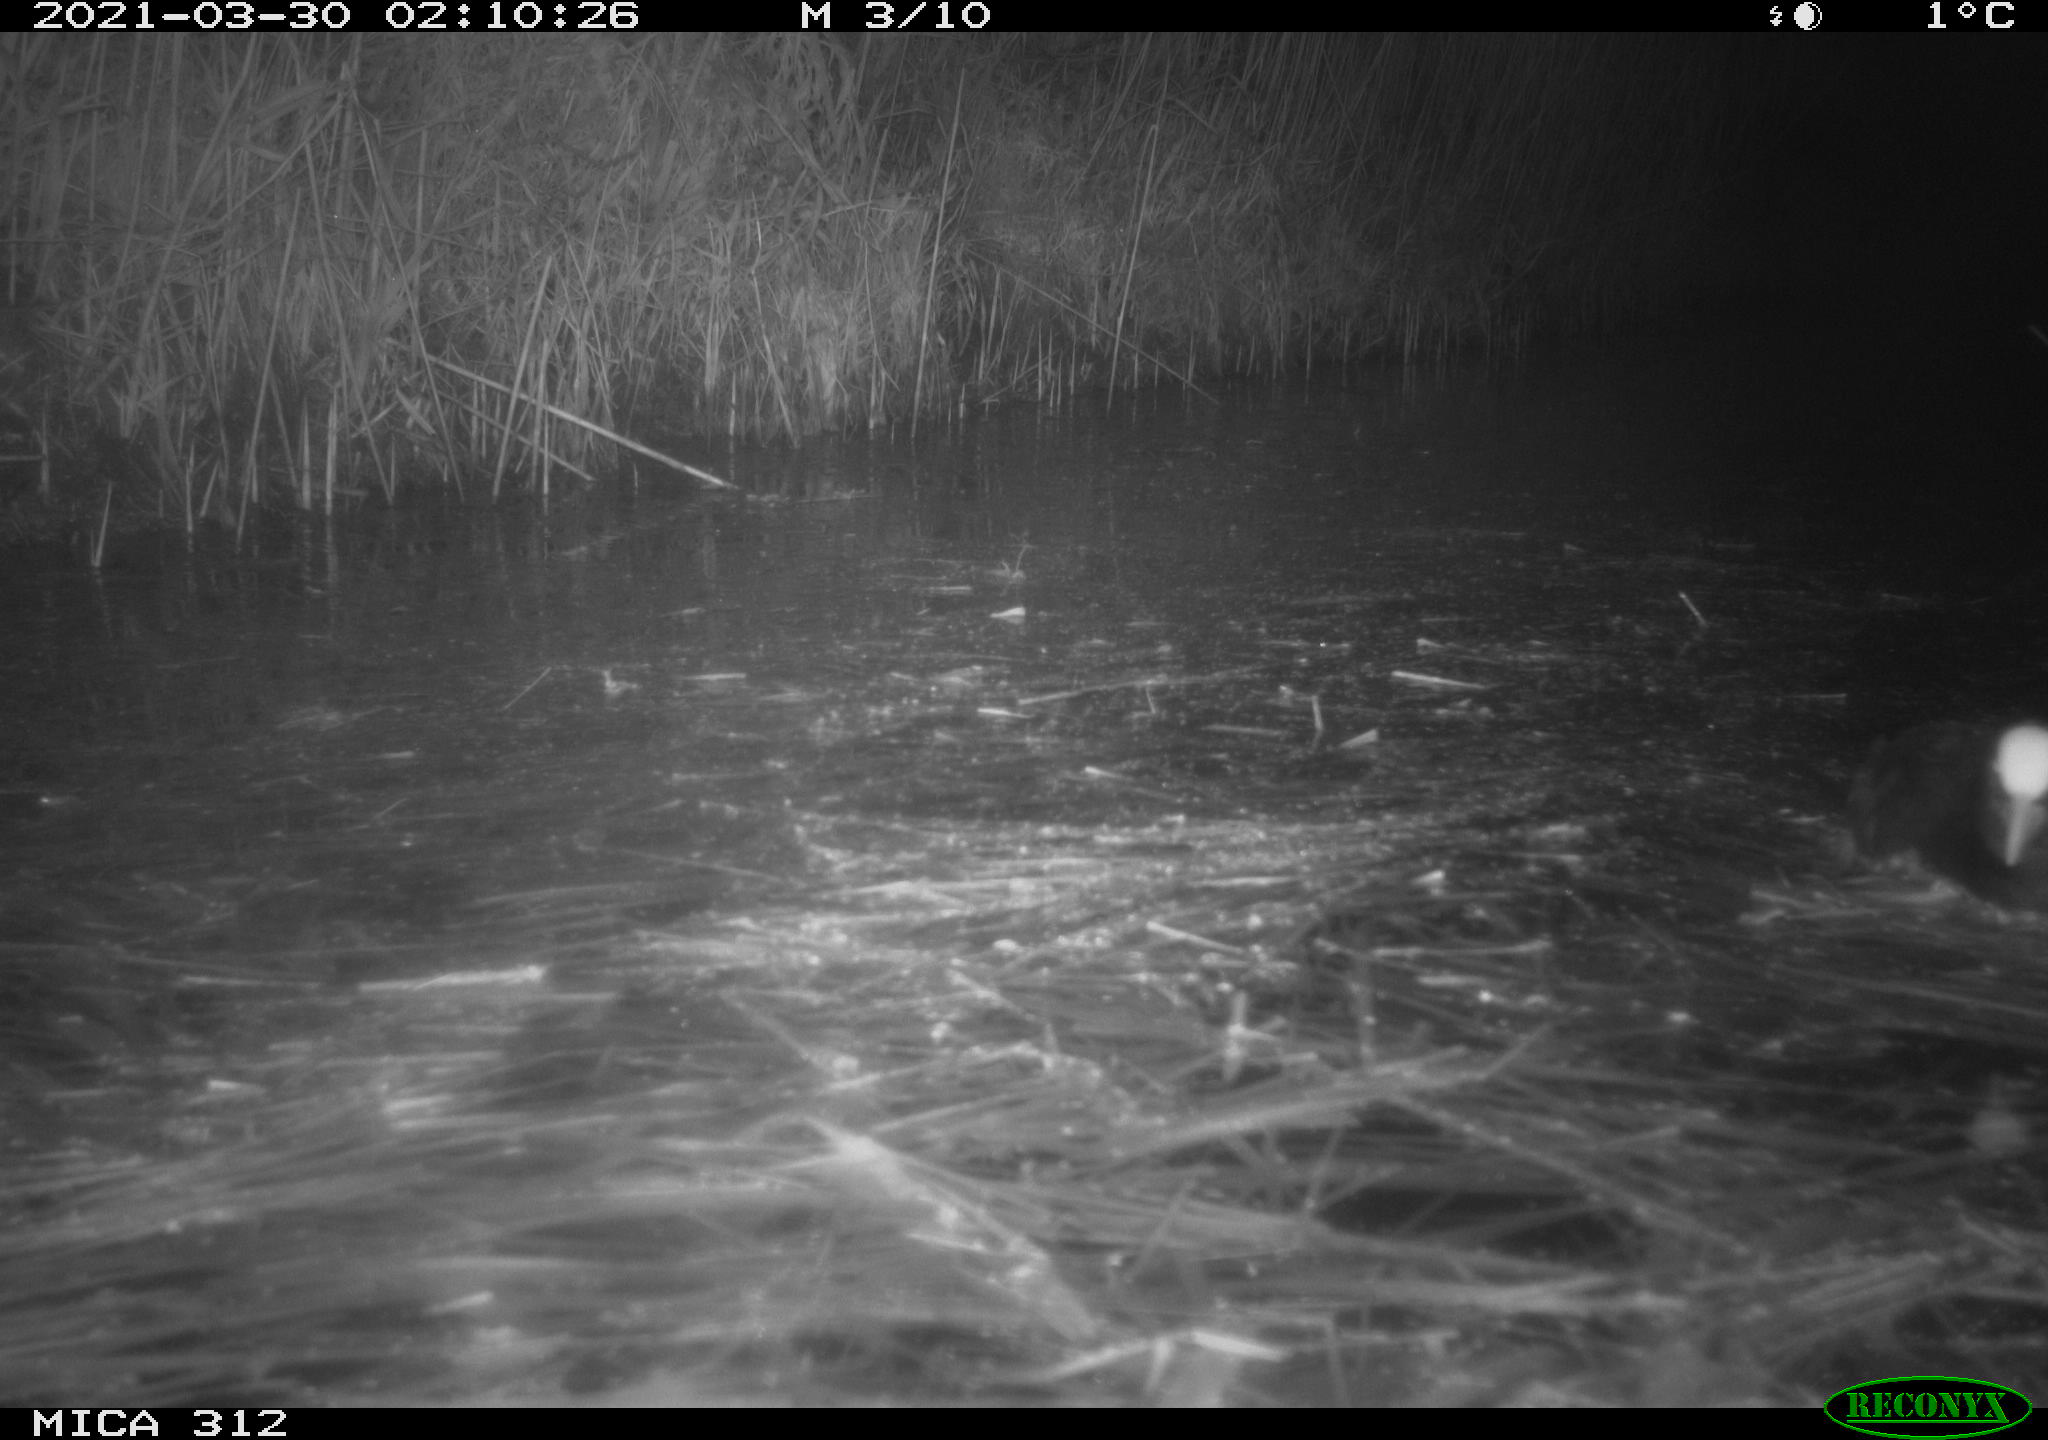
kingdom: Animalia
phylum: Chordata
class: Aves
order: Gruiformes
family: Rallidae
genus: Fulica
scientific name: Fulica atra
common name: Eurasian coot
